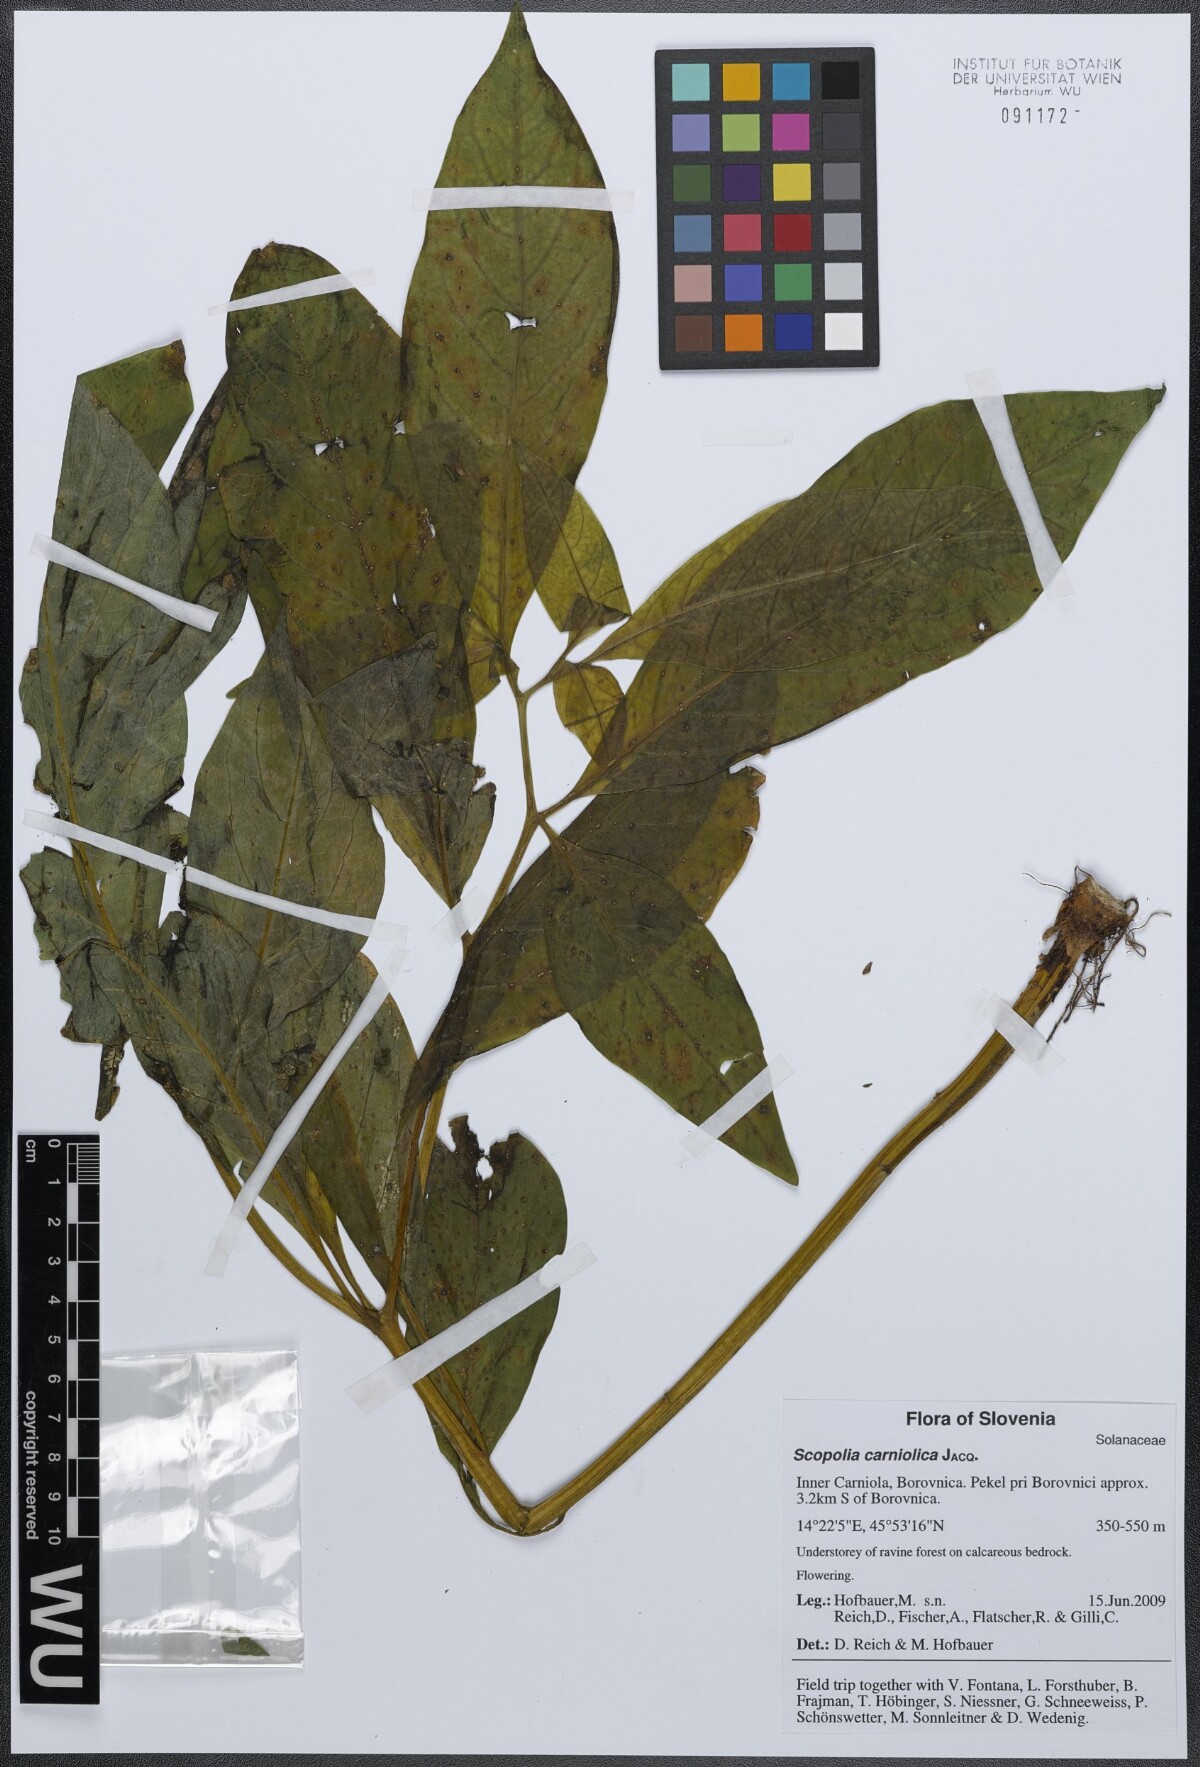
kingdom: Plantae
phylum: Tracheophyta
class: Magnoliopsida
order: Solanales
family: Solanaceae
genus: Scopolia
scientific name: Scopolia carniolica
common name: Scopolia
